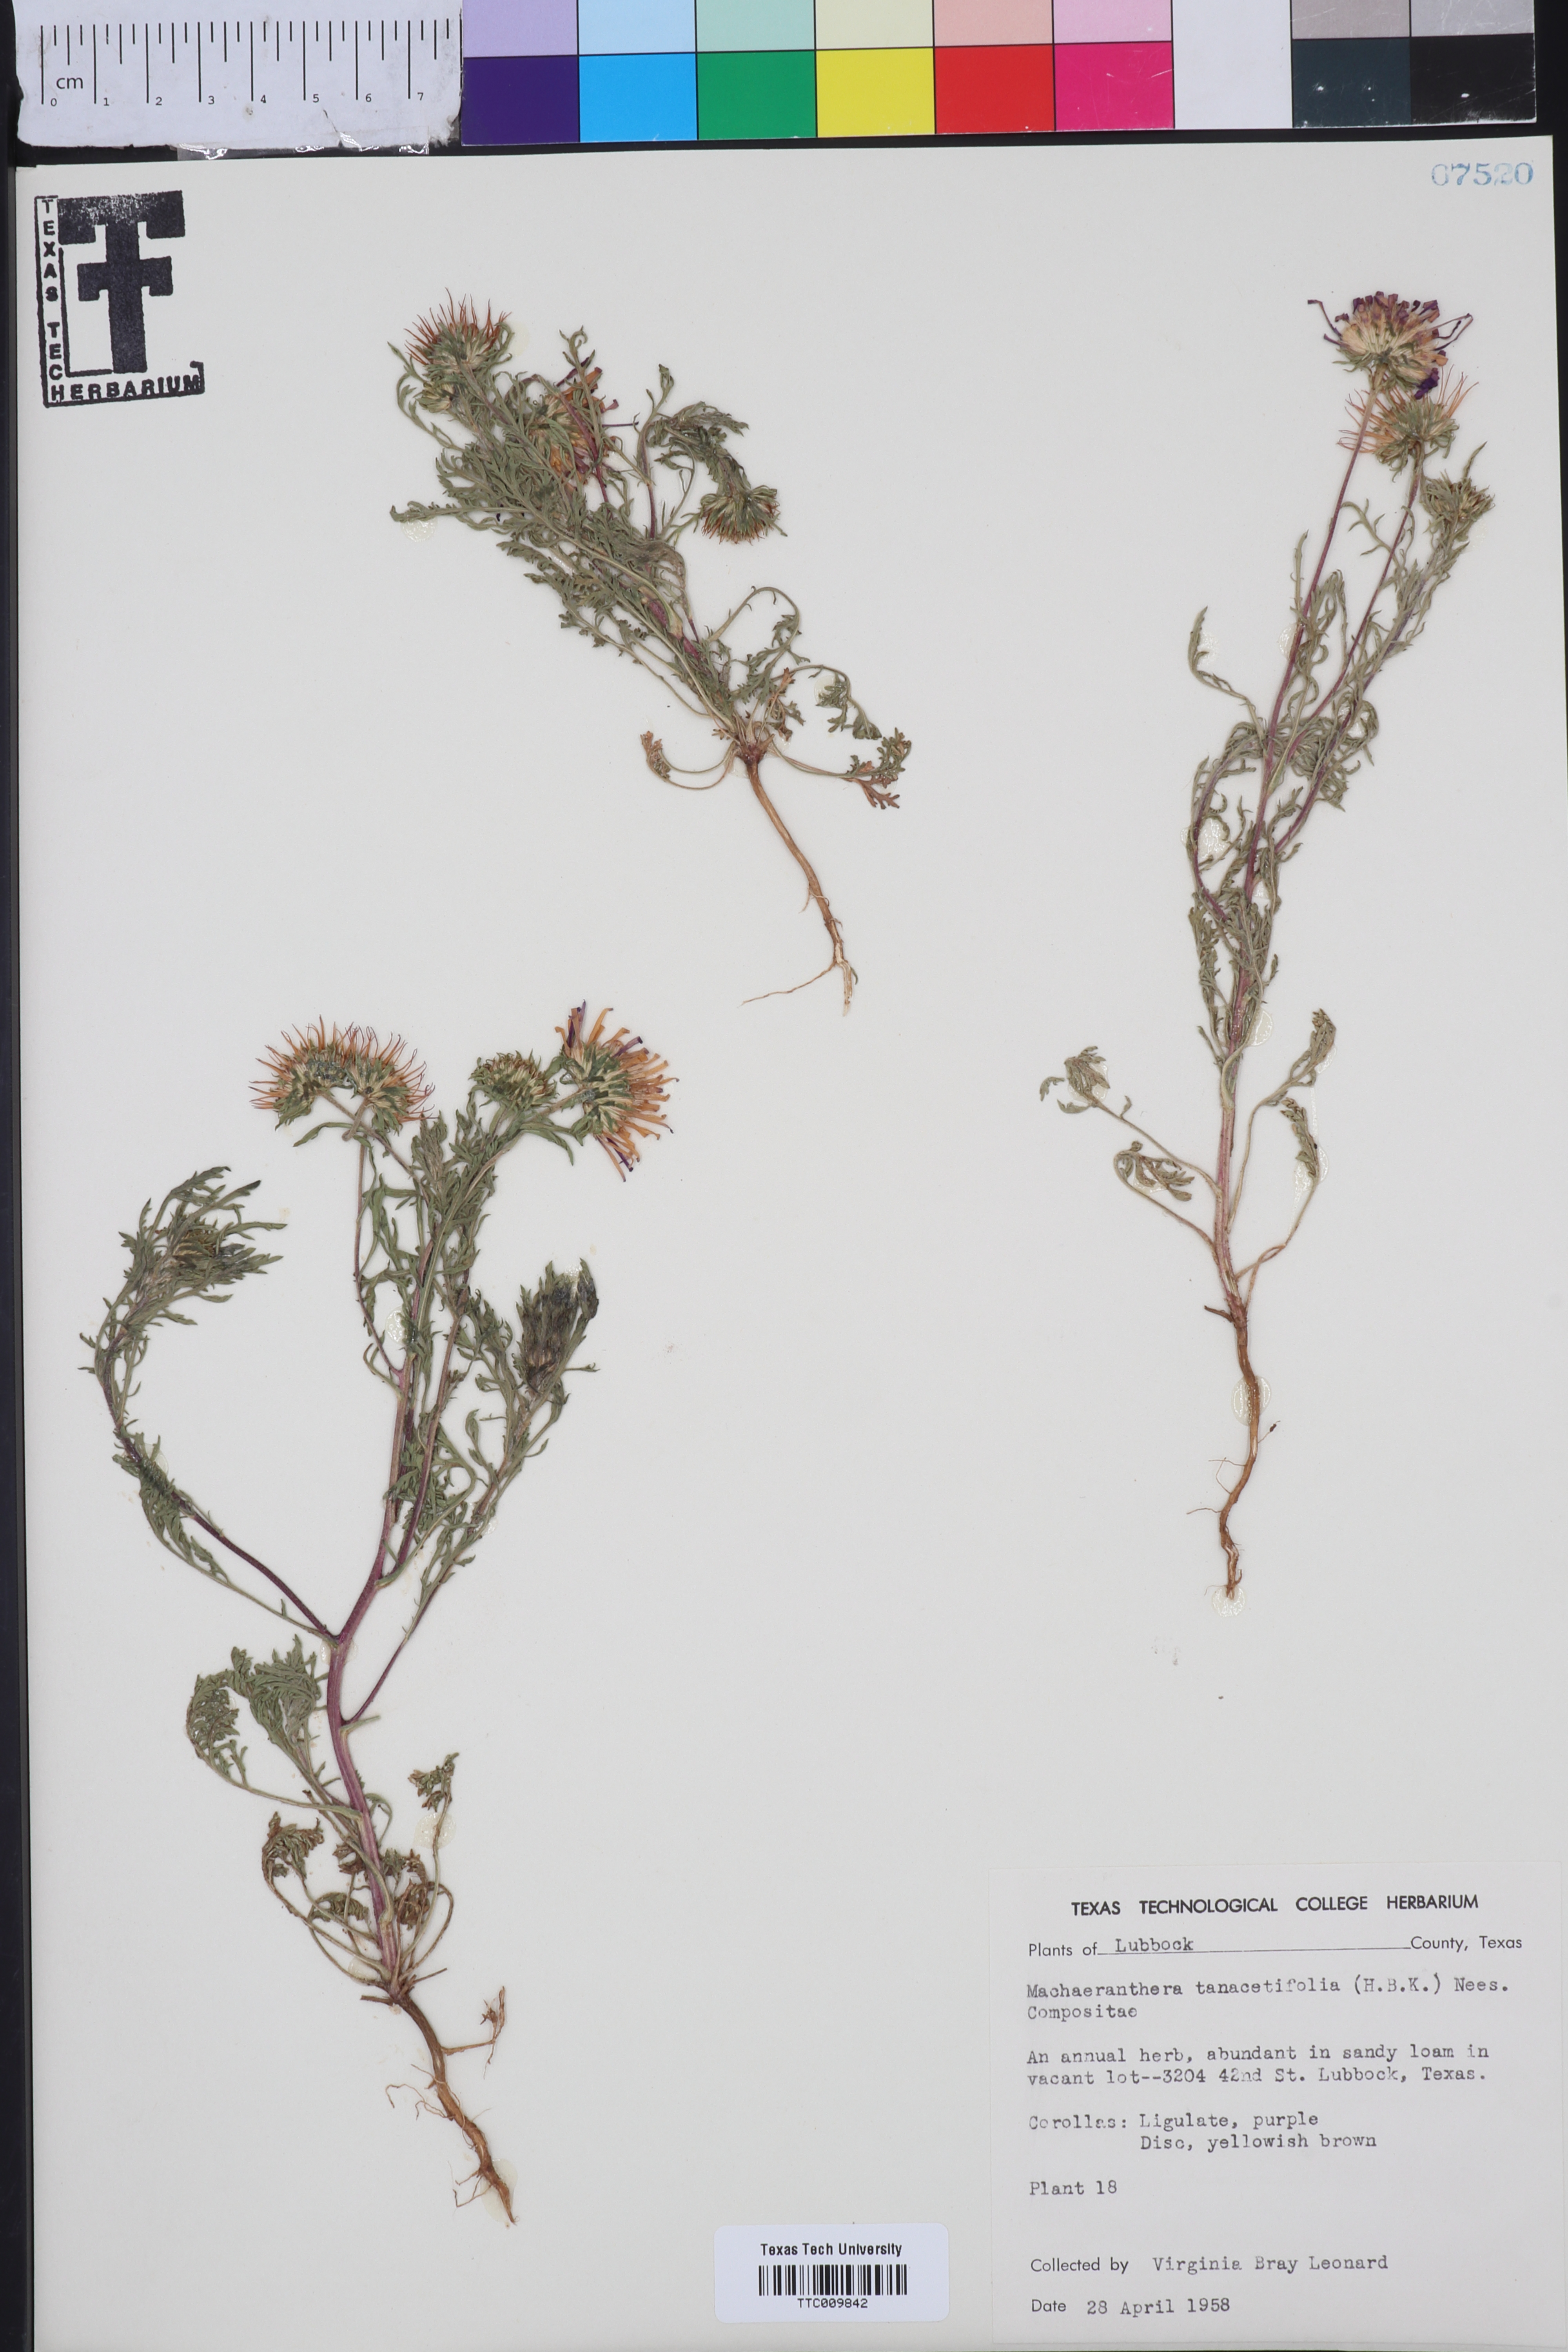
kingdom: Plantae
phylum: Tracheophyta
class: Magnoliopsida
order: Asterales
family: Asteraceae
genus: Machaeranthera
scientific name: Machaeranthera tanacetifolia
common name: Tansy-aster
